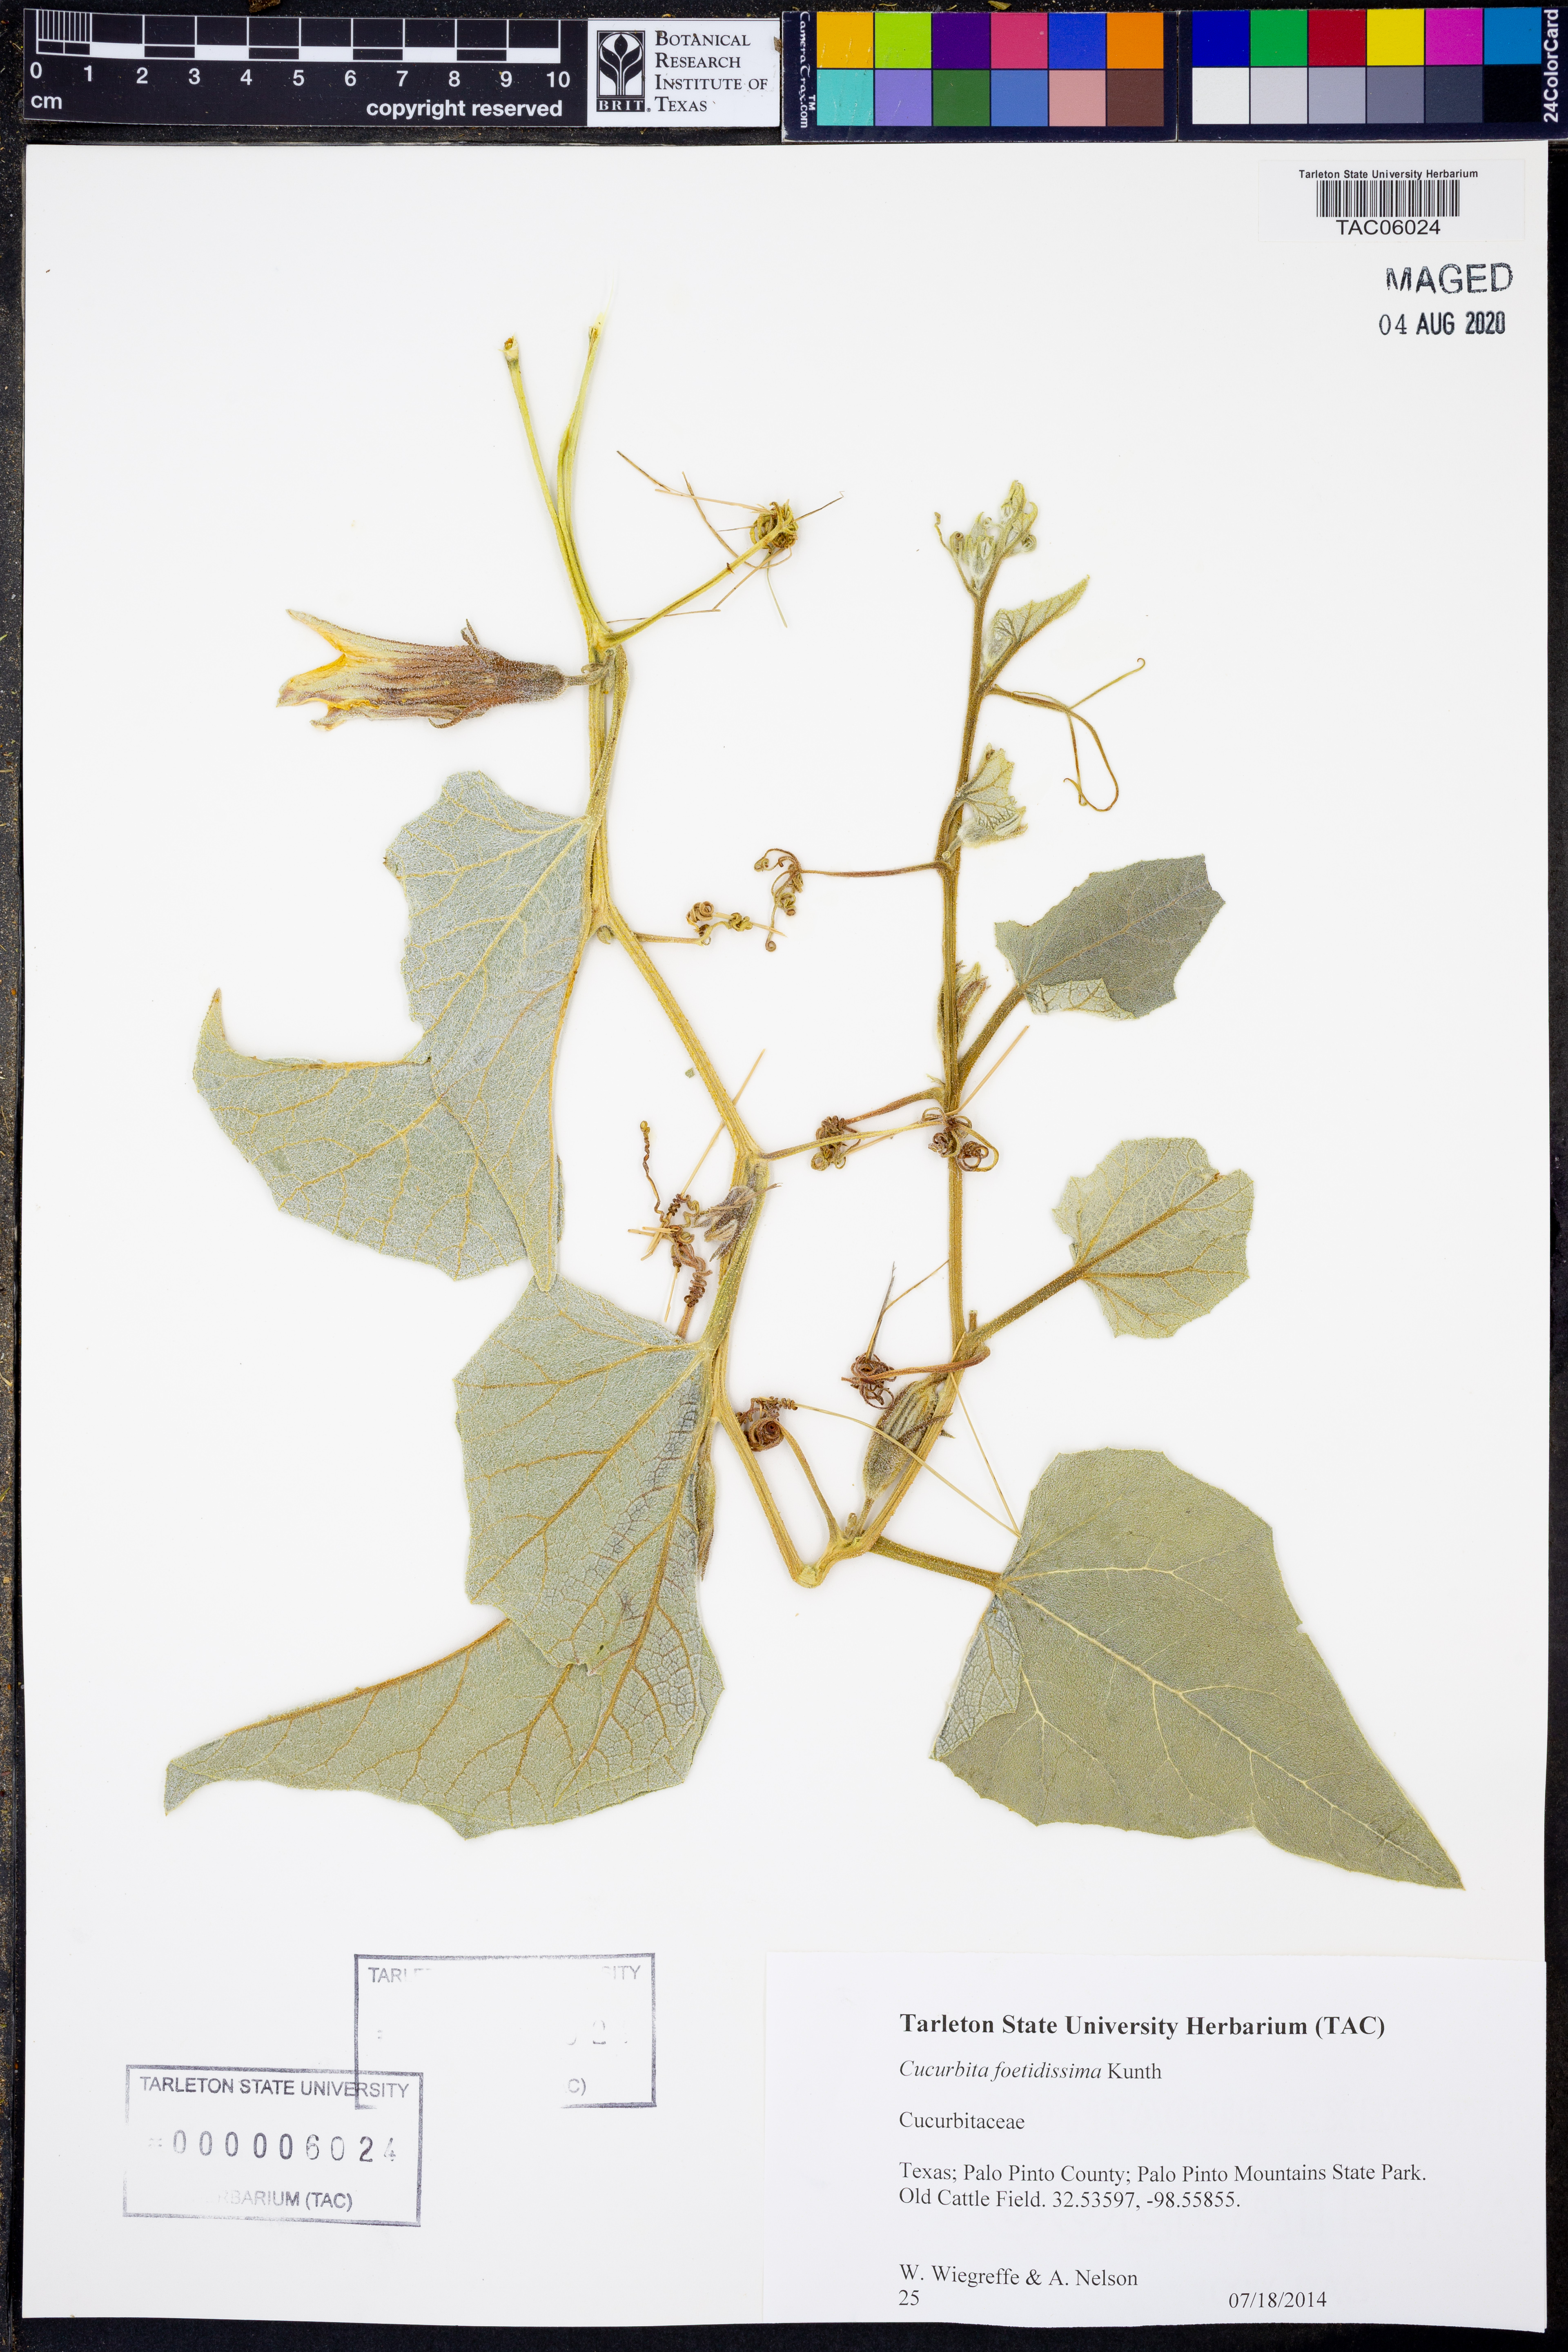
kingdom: Plantae
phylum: Tracheophyta
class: Magnoliopsida
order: Cucurbitales
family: Cucurbitaceae
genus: Cucurbita
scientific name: Cucurbita foetidissima
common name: Buffalo gourd
